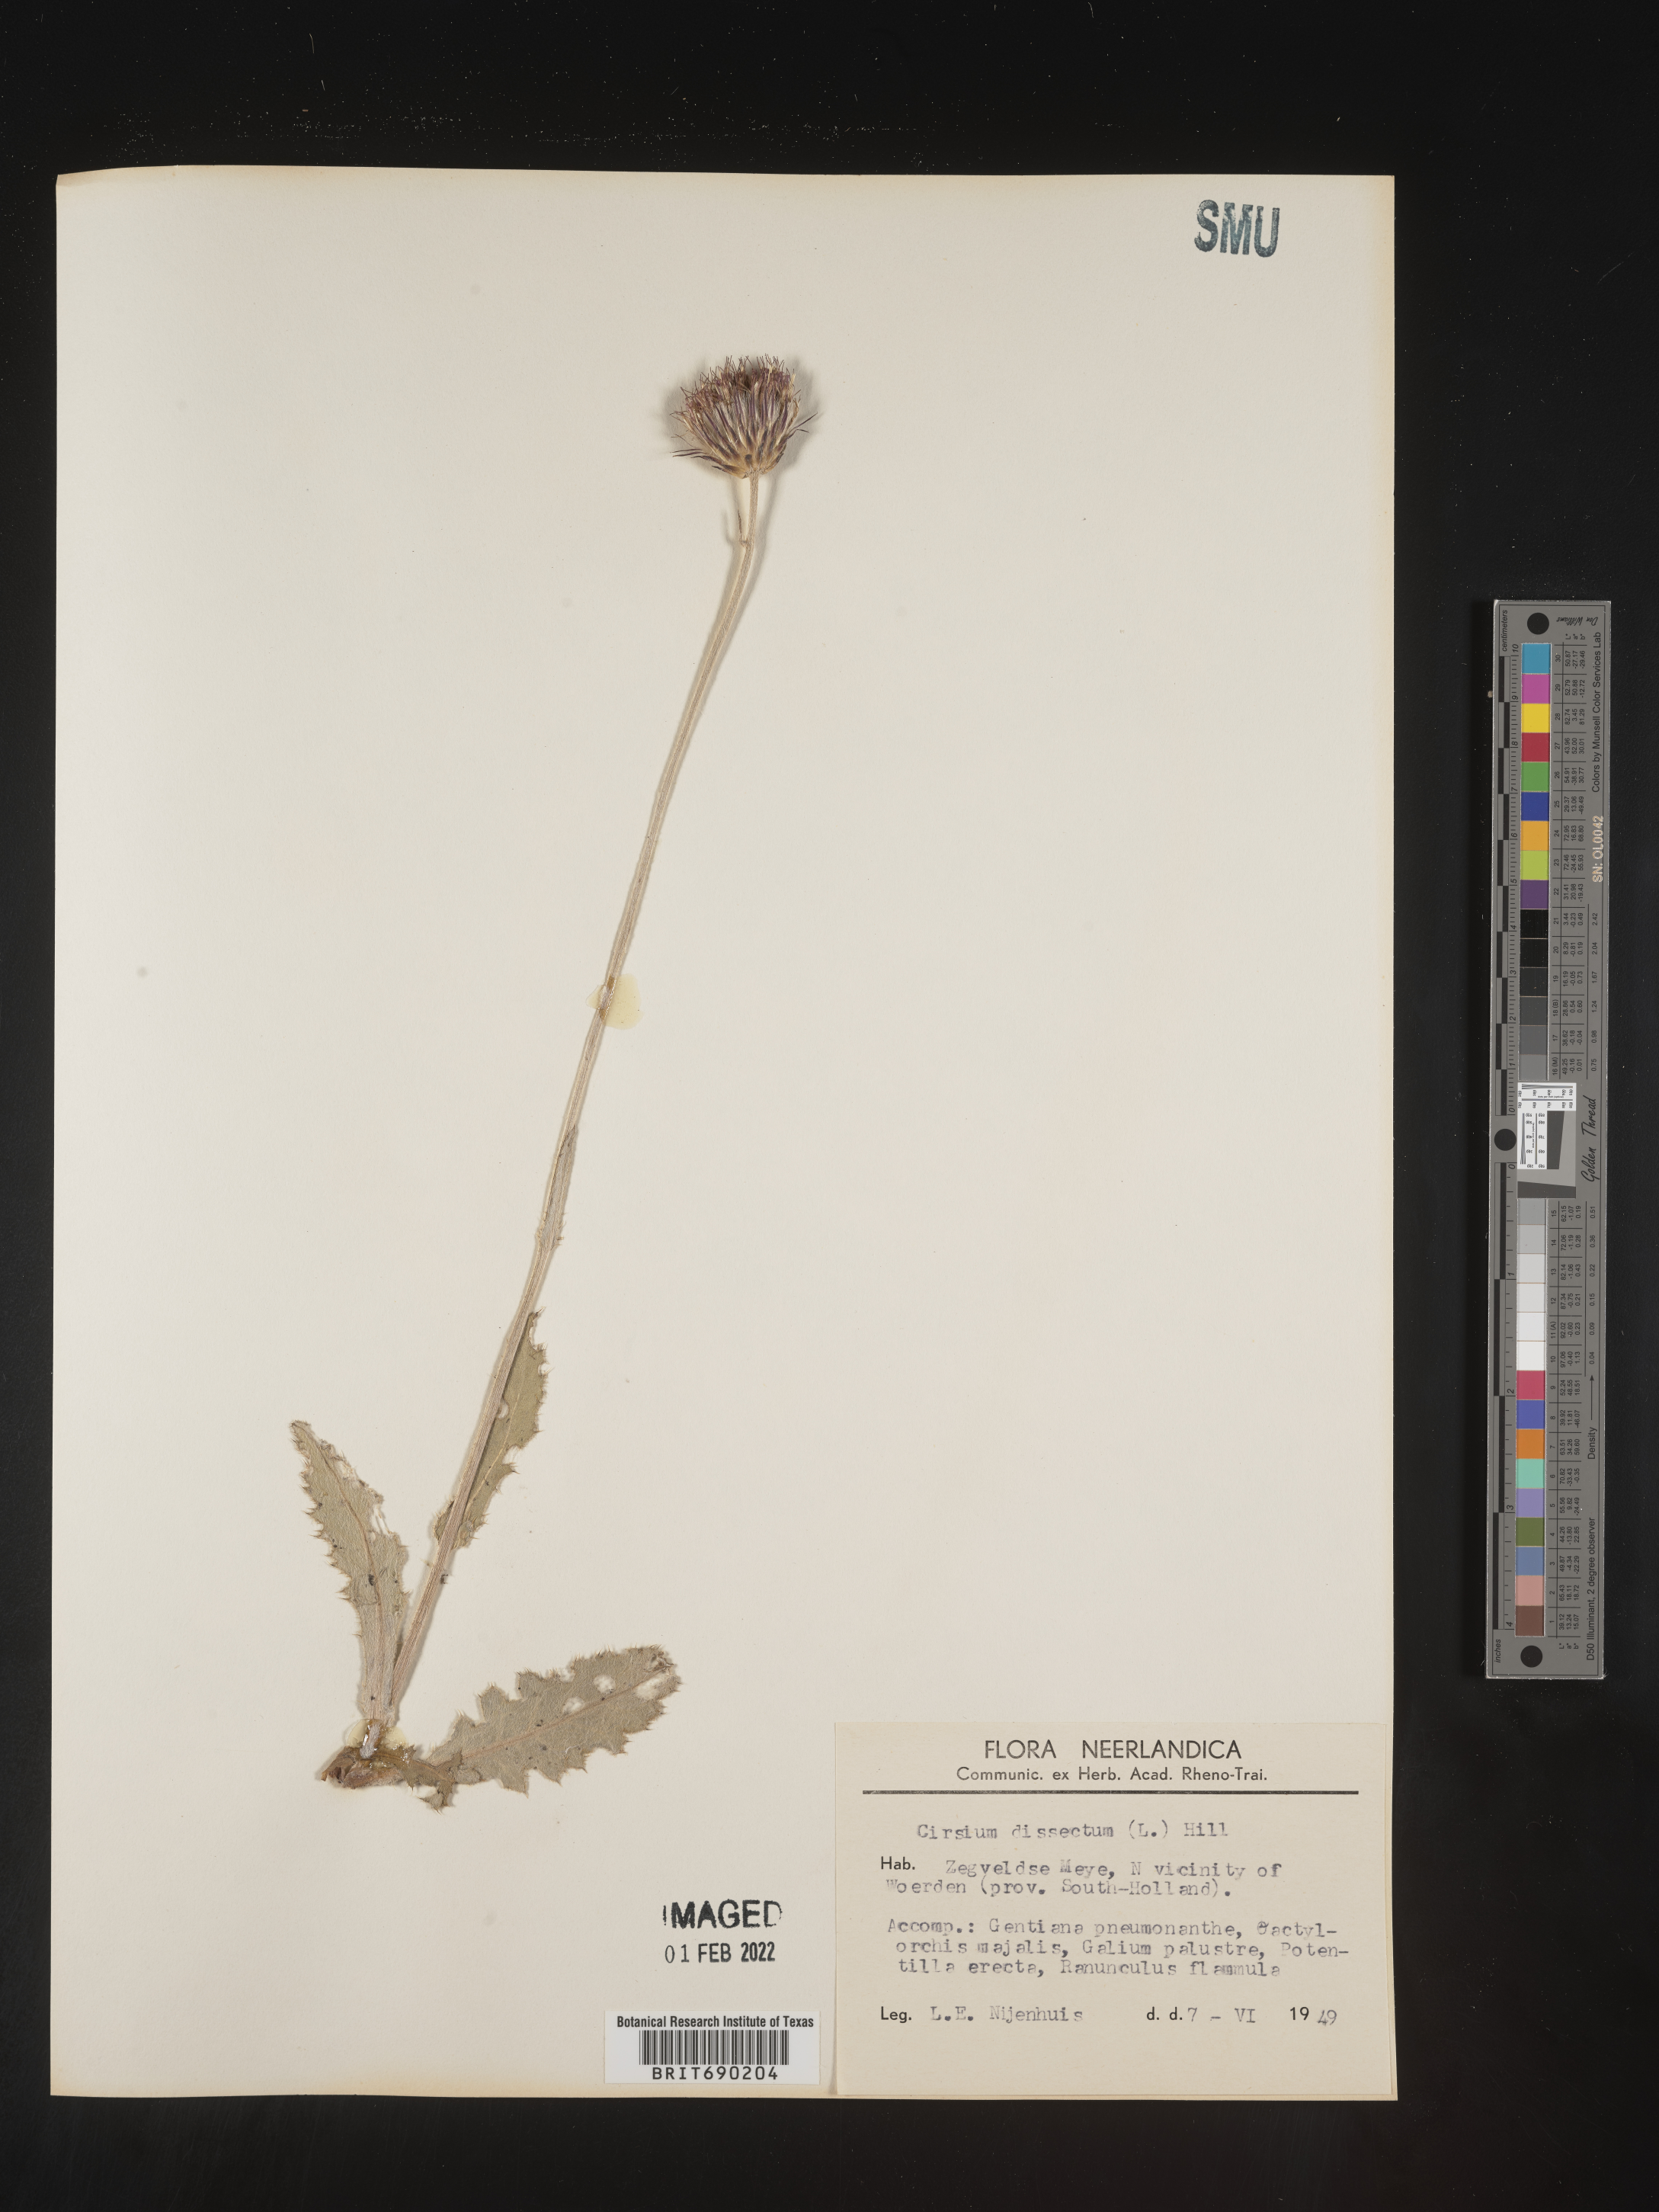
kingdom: Plantae
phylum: Tracheophyta
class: Magnoliopsida
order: Asterales
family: Asteraceae
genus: Cirsium
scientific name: Cirsium
